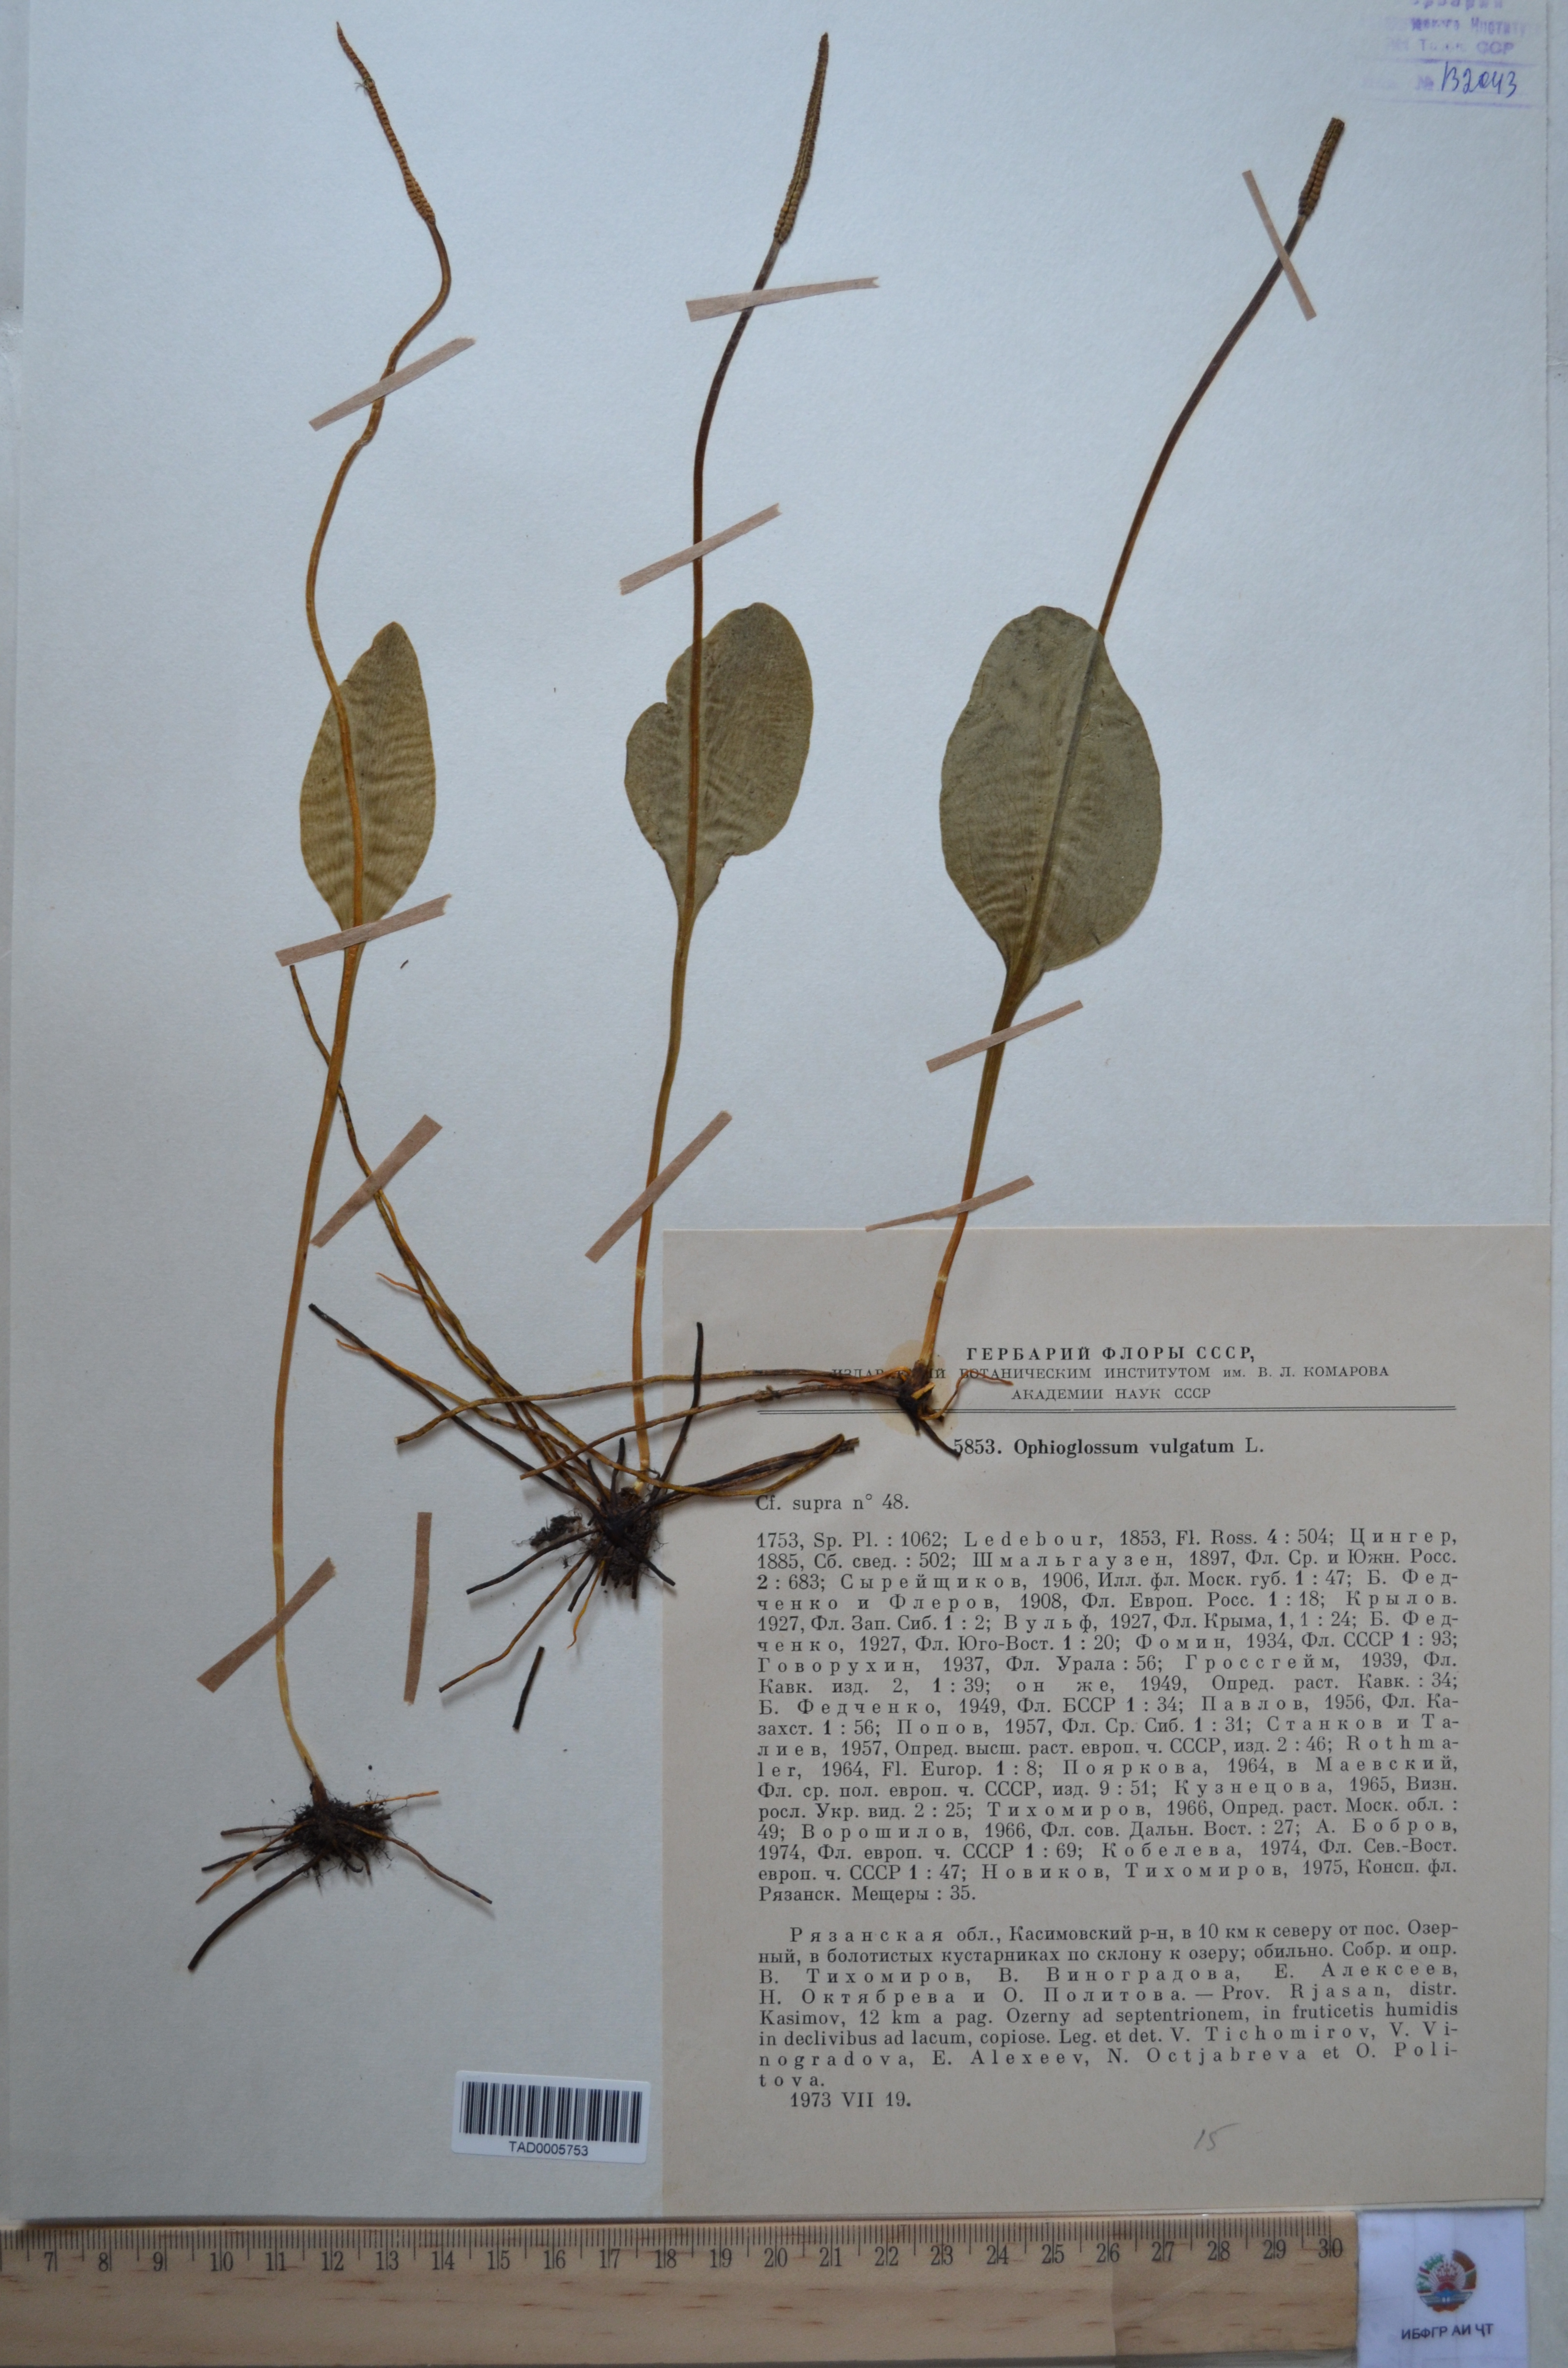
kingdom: Plantae
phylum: Tracheophyta
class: Polypodiopsida
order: Ophioglossales
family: Ophioglossaceae
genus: Ophioglossum
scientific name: Ophioglossum vulgatum
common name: Adder's-tongue
